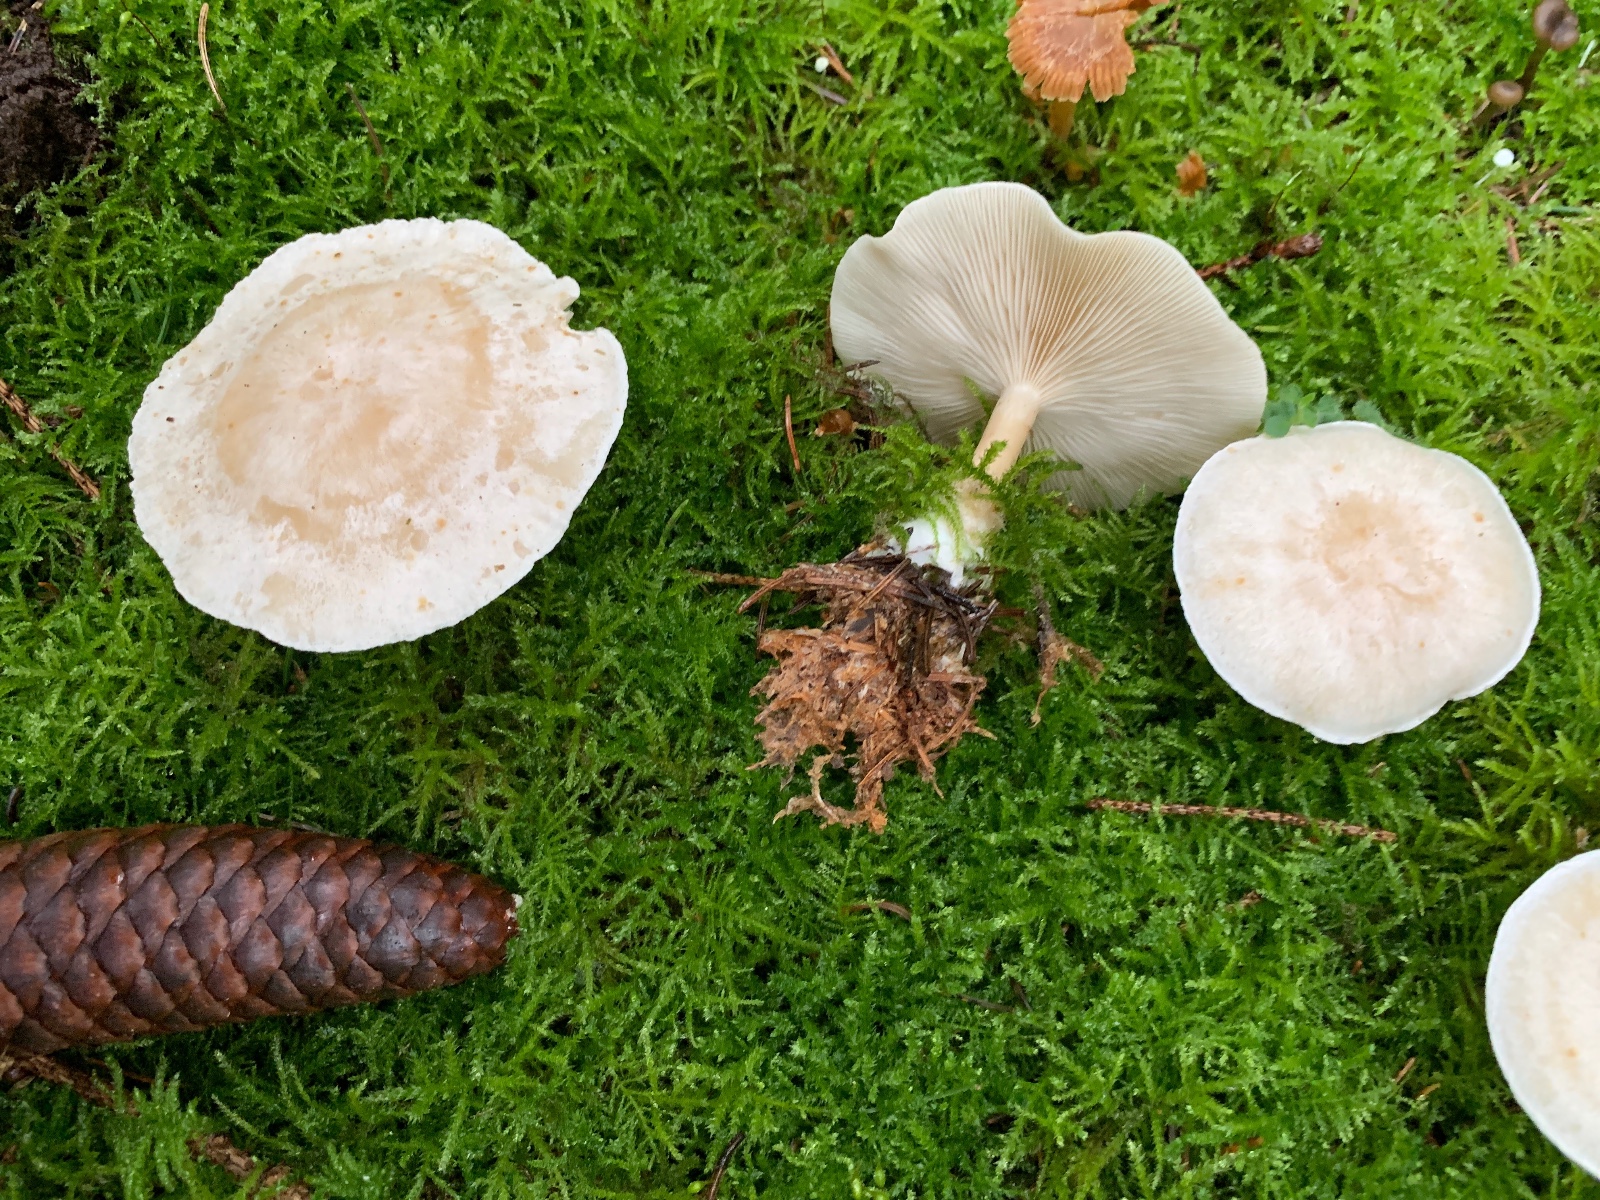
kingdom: Fungi
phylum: Basidiomycota
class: Agaricomycetes
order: Agaricales
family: Tricholomataceae
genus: Clitocybe
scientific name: Clitocybe phyllophila
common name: løv-tragthat
